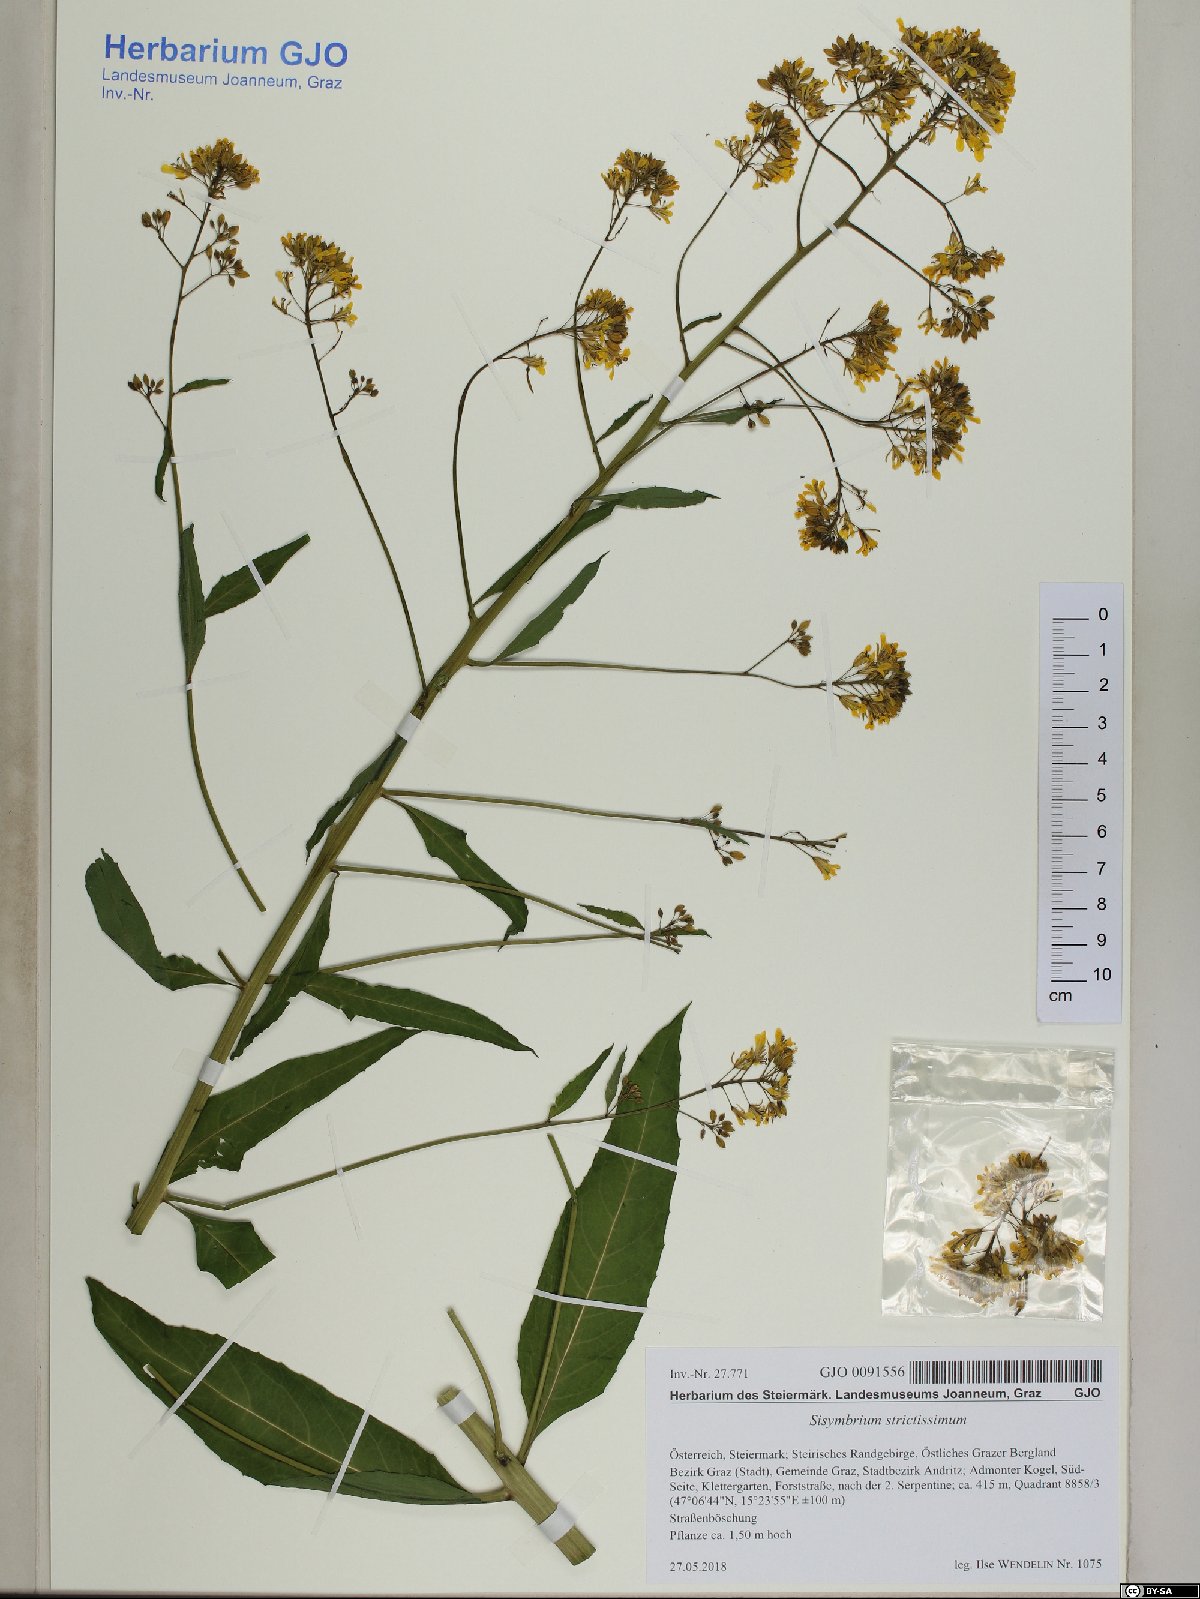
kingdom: Plantae
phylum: Tracheophyta
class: Magnoliopsida
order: Brassicales
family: Brassicaceae
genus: Sisymbrium
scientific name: Sisymbrium strictissimum
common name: Perennial rocket
